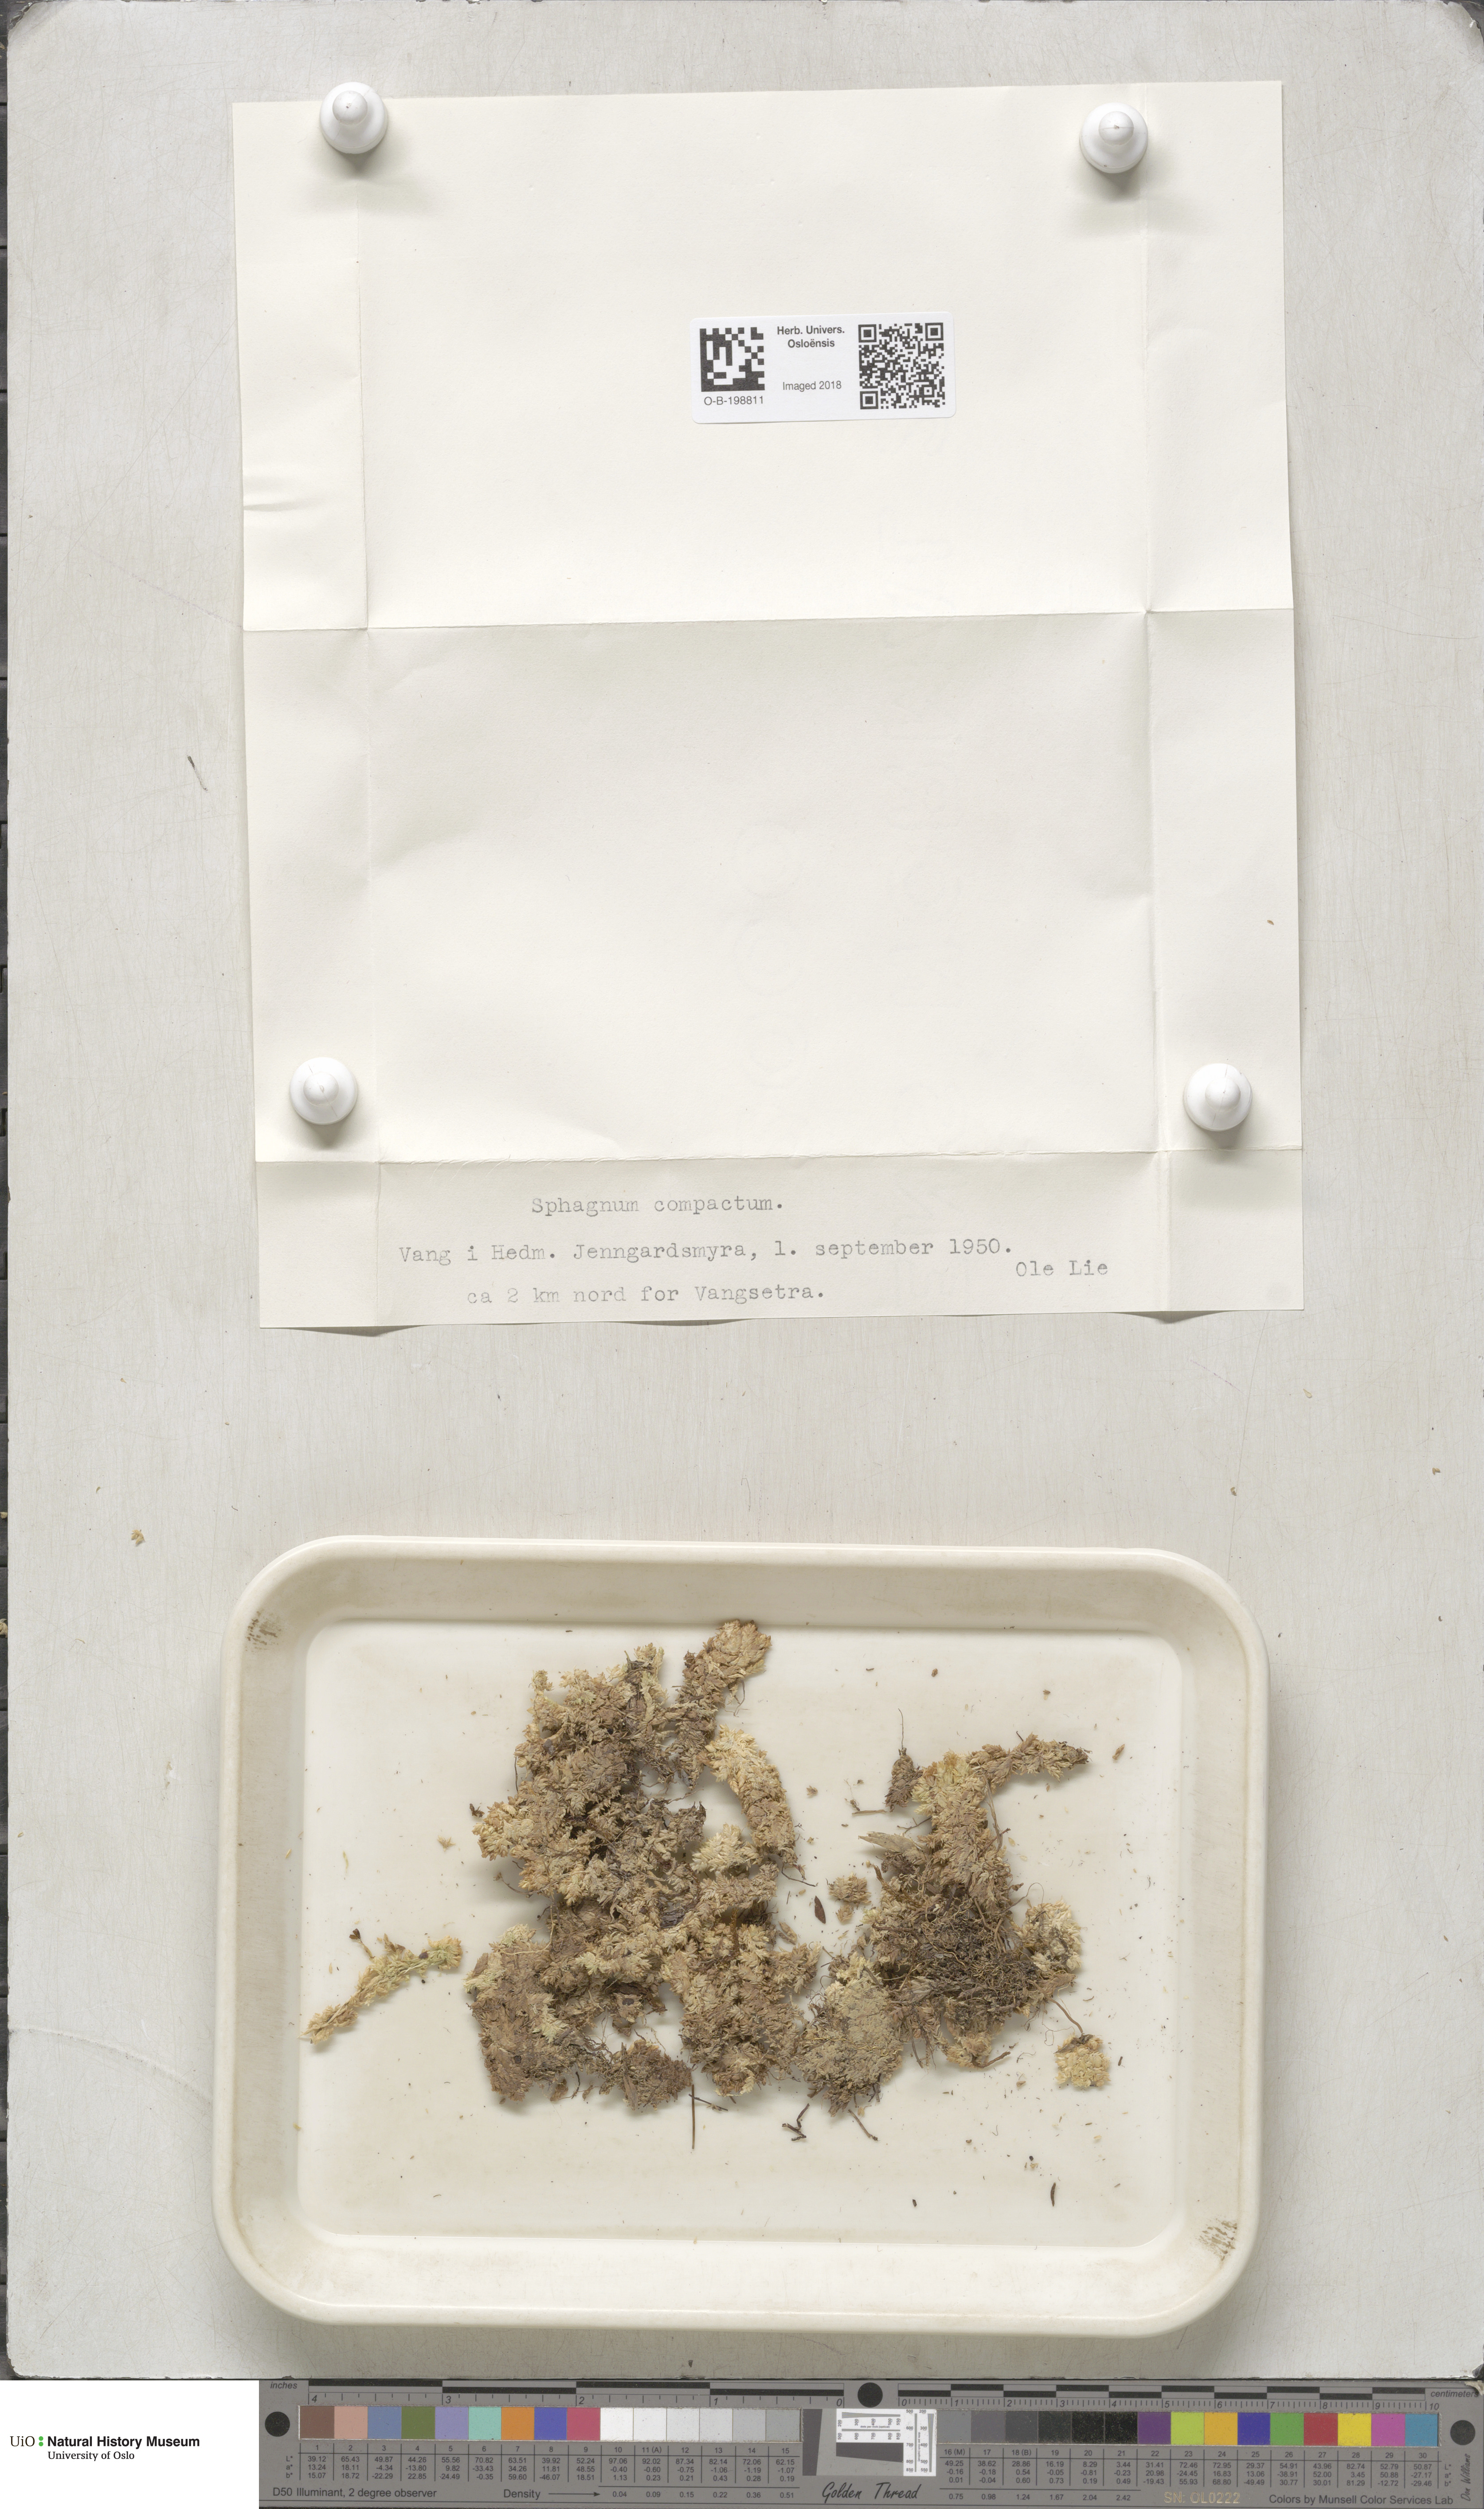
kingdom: Plantae
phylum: Bryophyta
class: Sphagnopsida
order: Sphagnales
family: Sphagnaceae
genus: Sphagnum
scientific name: Sphagnum compactum
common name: Compact peat moss
